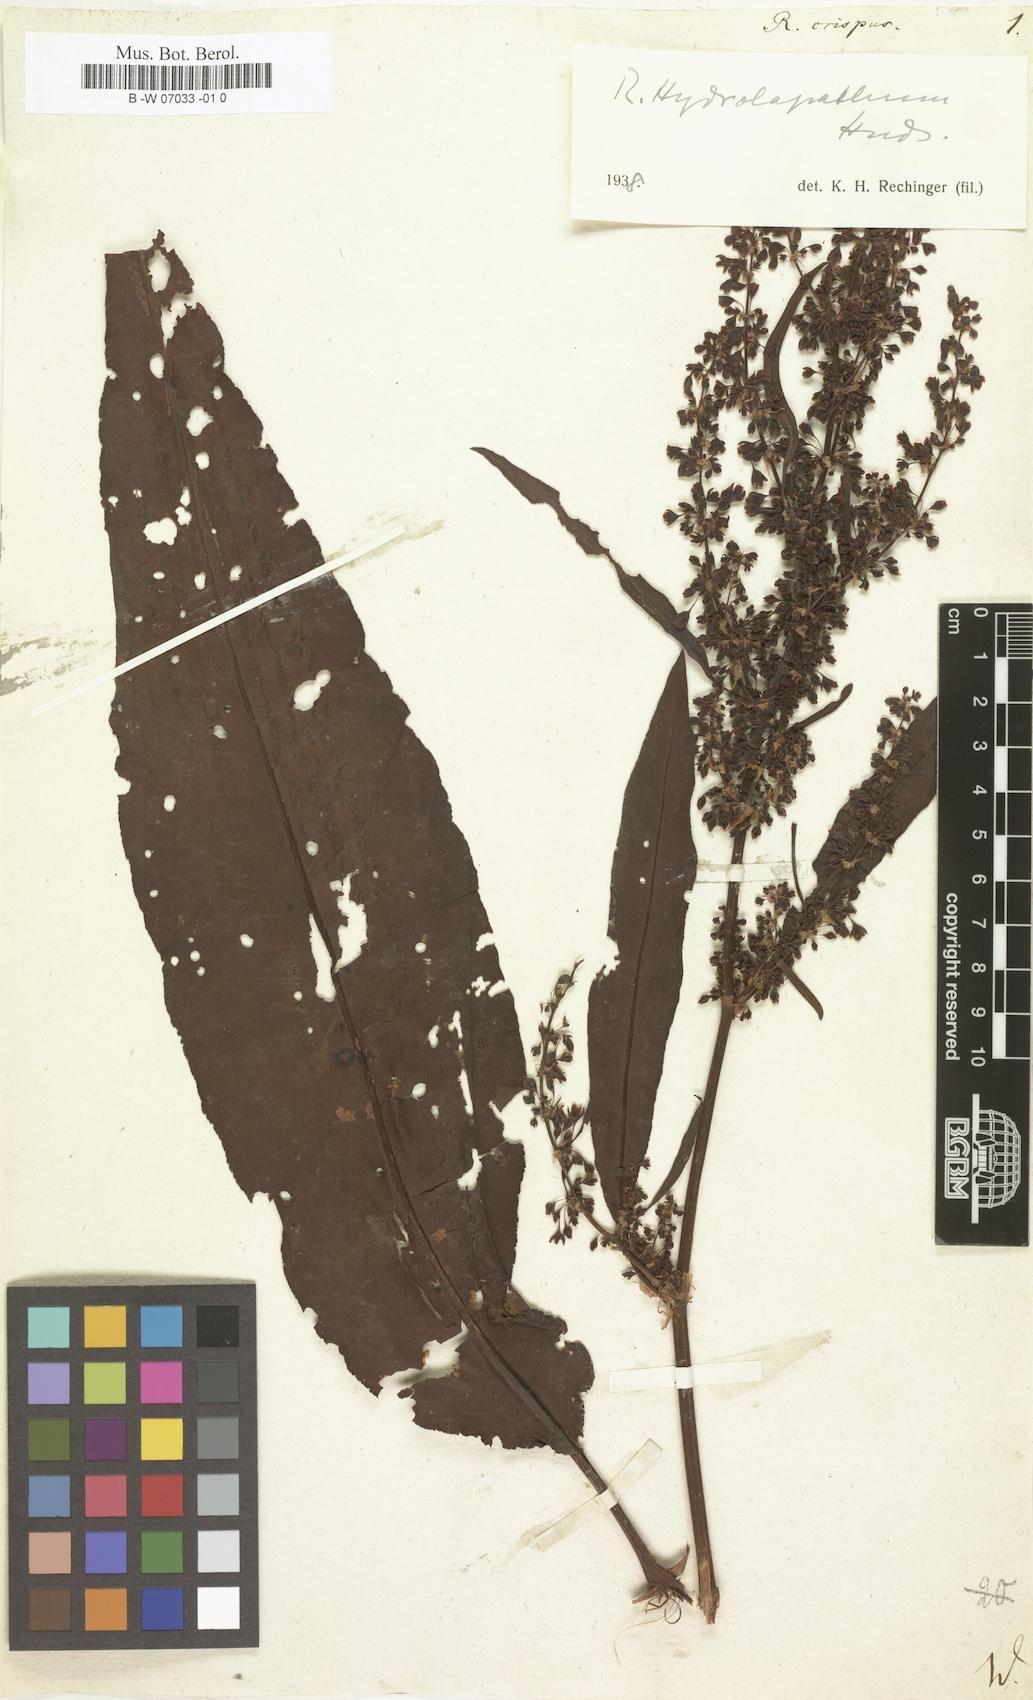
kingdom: Plantae
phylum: Tracheophyta
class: Magnoliopsida
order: Caryophyllales
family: Polygonaceae
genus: Rumex
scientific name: Rumex crispus
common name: Curled dock
